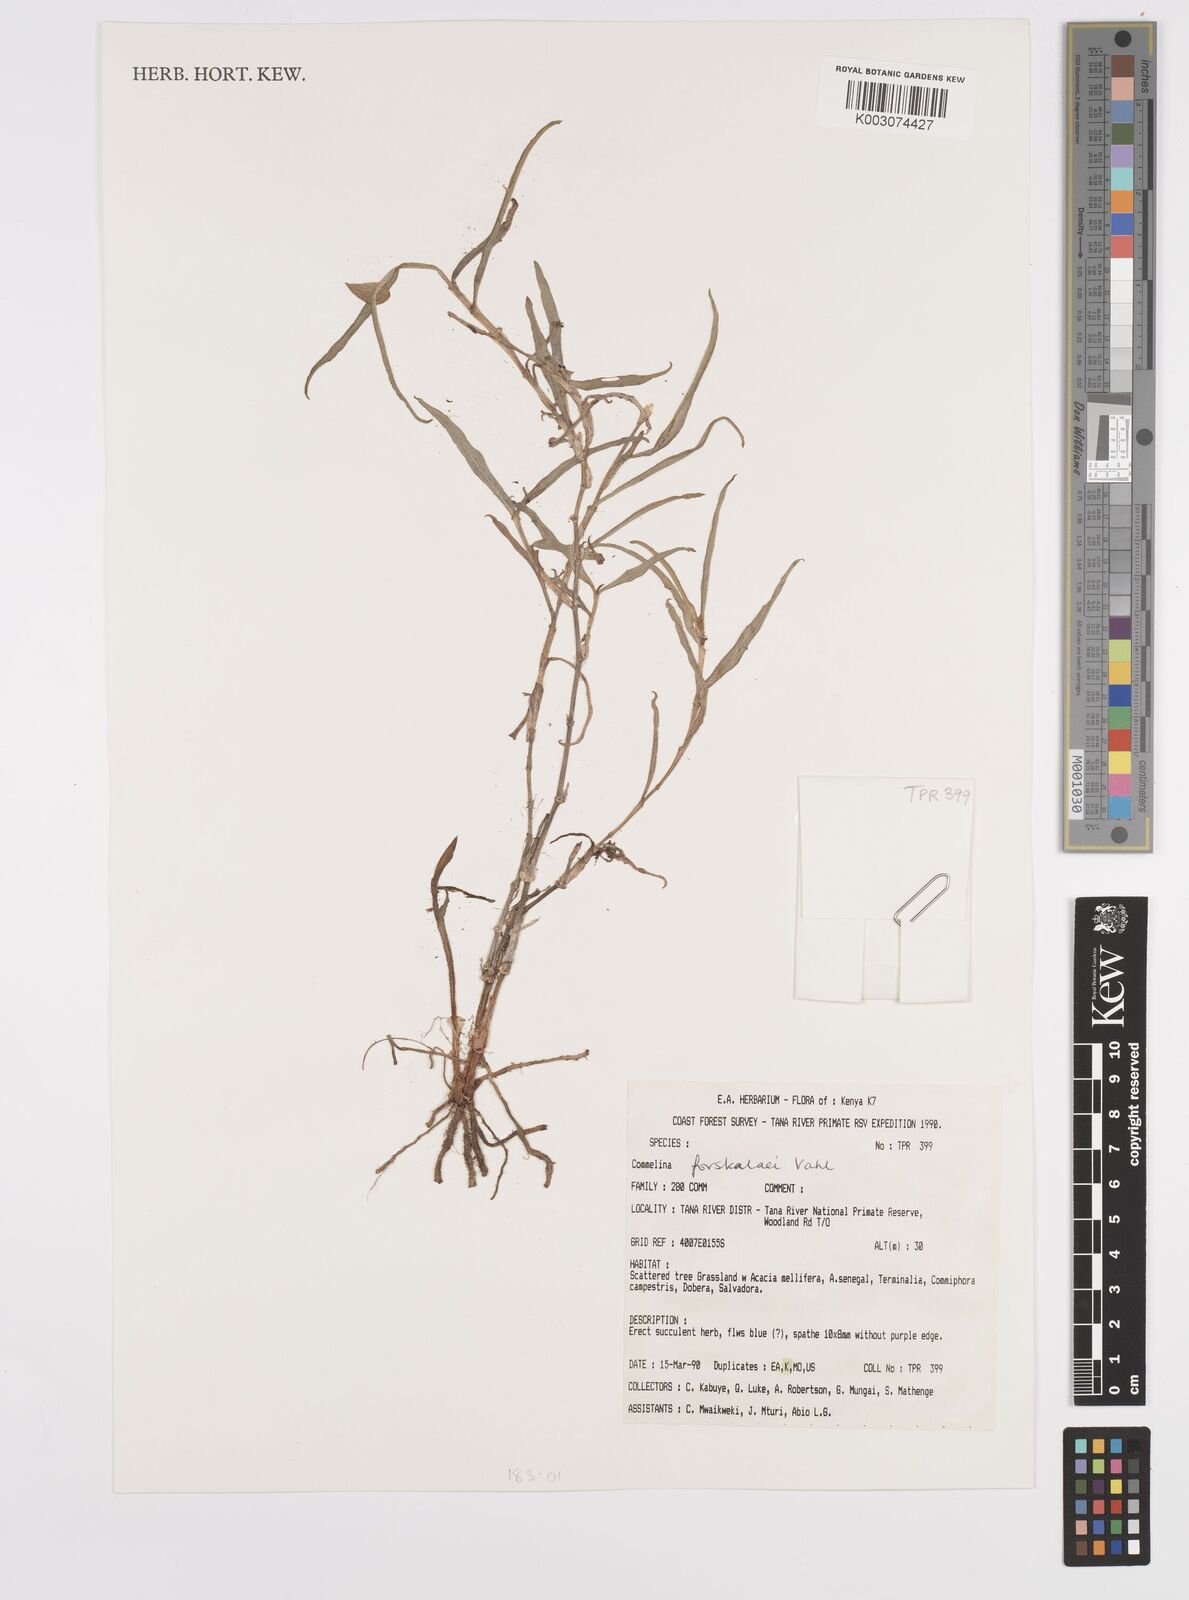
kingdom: Plantae
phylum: Tracheophyta
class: Liliopsida
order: Commelinales
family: Commelinaceae
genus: Commelina
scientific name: Commelina forskaolii
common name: Rat's ear
